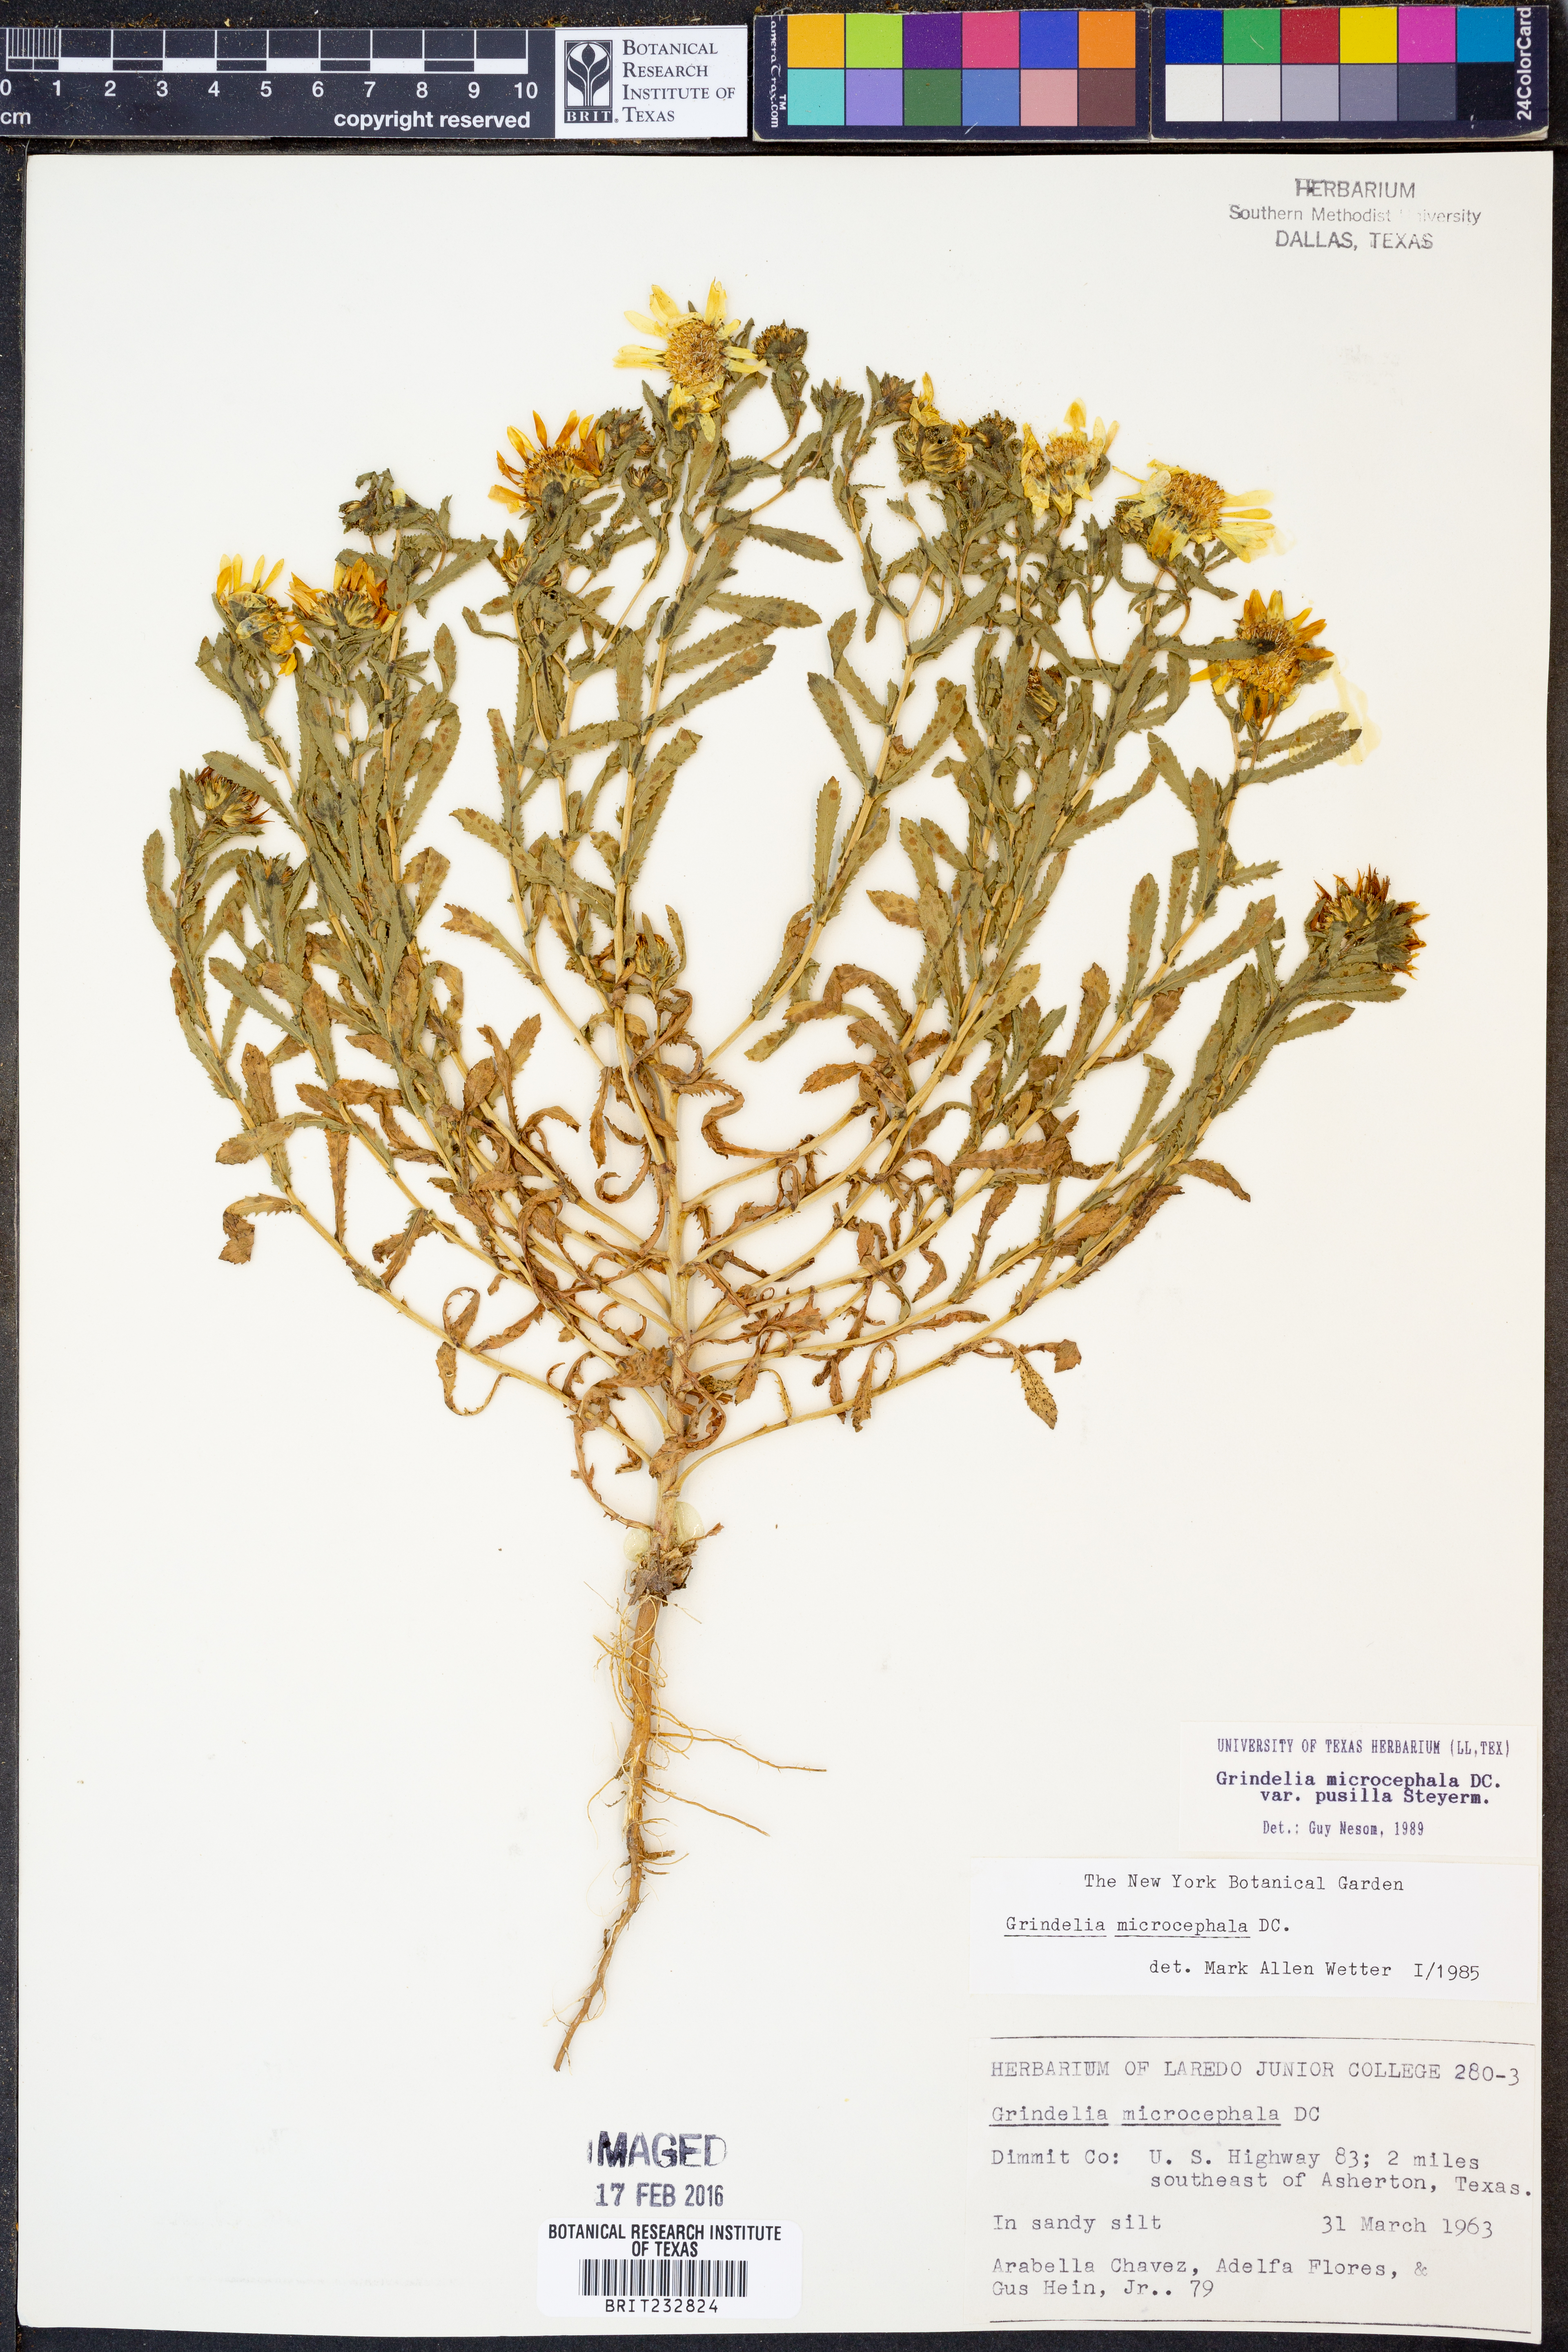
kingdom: Plantae
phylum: Tracheophyta
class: Magnoliopsida
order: Asterales
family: Asteraceae
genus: Grindelia
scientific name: Grindelia pusilla
